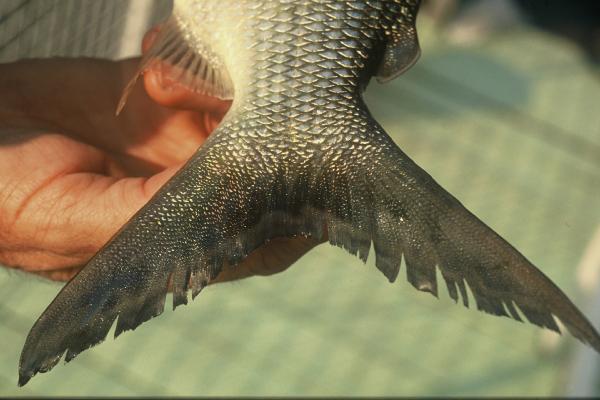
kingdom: Animalia
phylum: Chordata
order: Characiformes
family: Distichodontidae
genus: Distichodus
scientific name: Distichodus schenga
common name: Chessa
